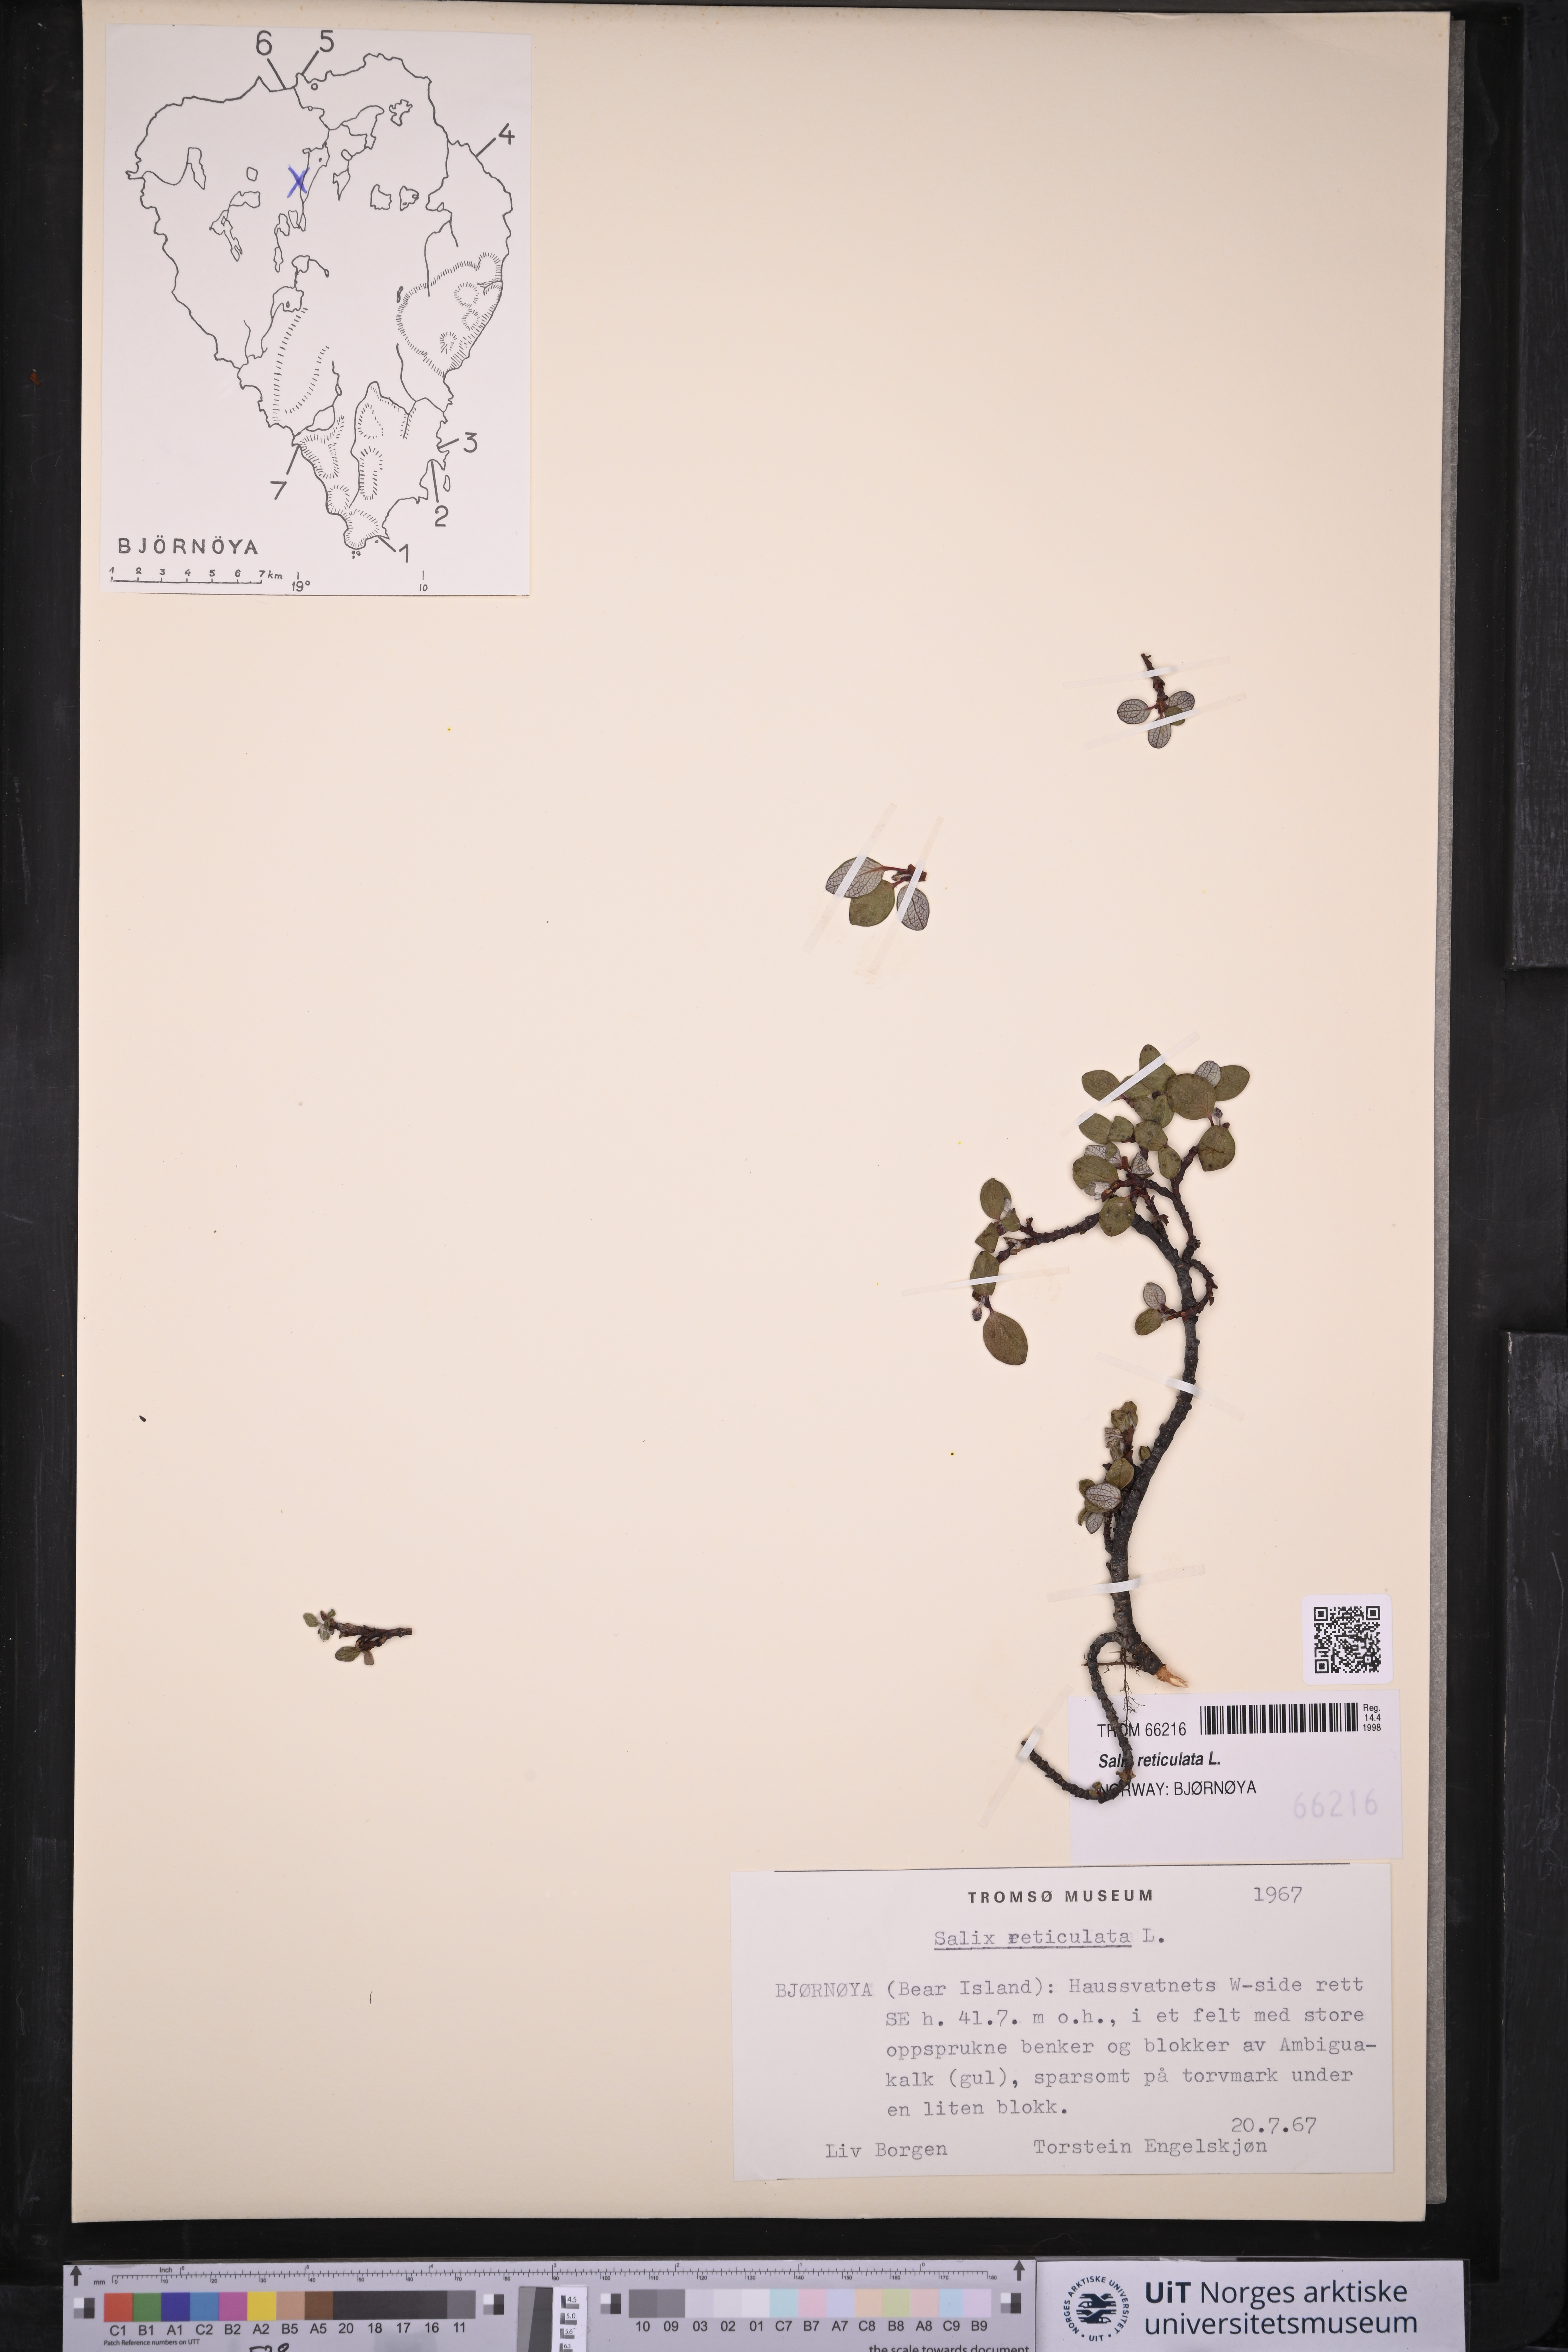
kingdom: Plantae
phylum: Tracheophyta
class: Magnoliopsida
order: Malpighiales
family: Salicaceae
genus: Salix
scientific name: Salix reticulata
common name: Net-leaved willow
